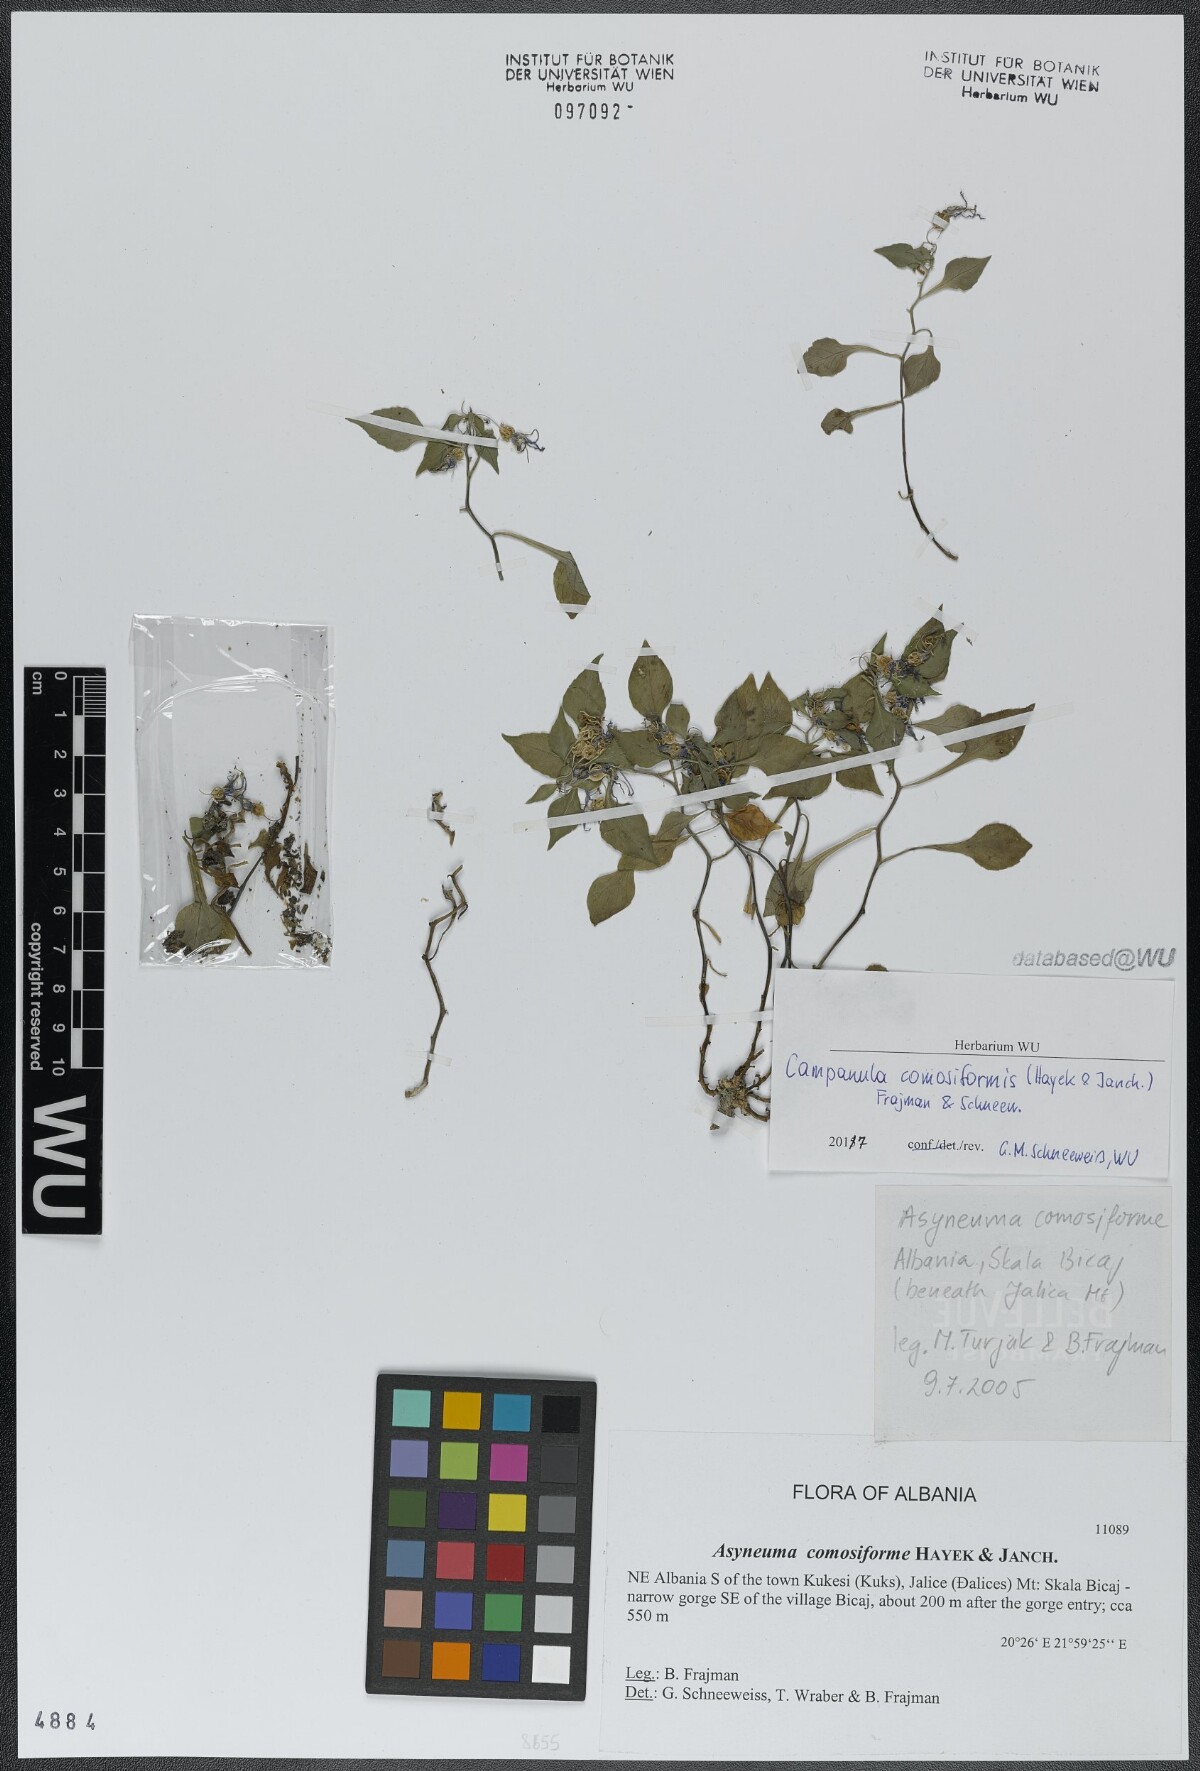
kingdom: Plantae
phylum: Tracheophyta
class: Magnoliopsida
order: Asterales
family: Campanulaceae
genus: Campanula
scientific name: Campanula comosiformis
